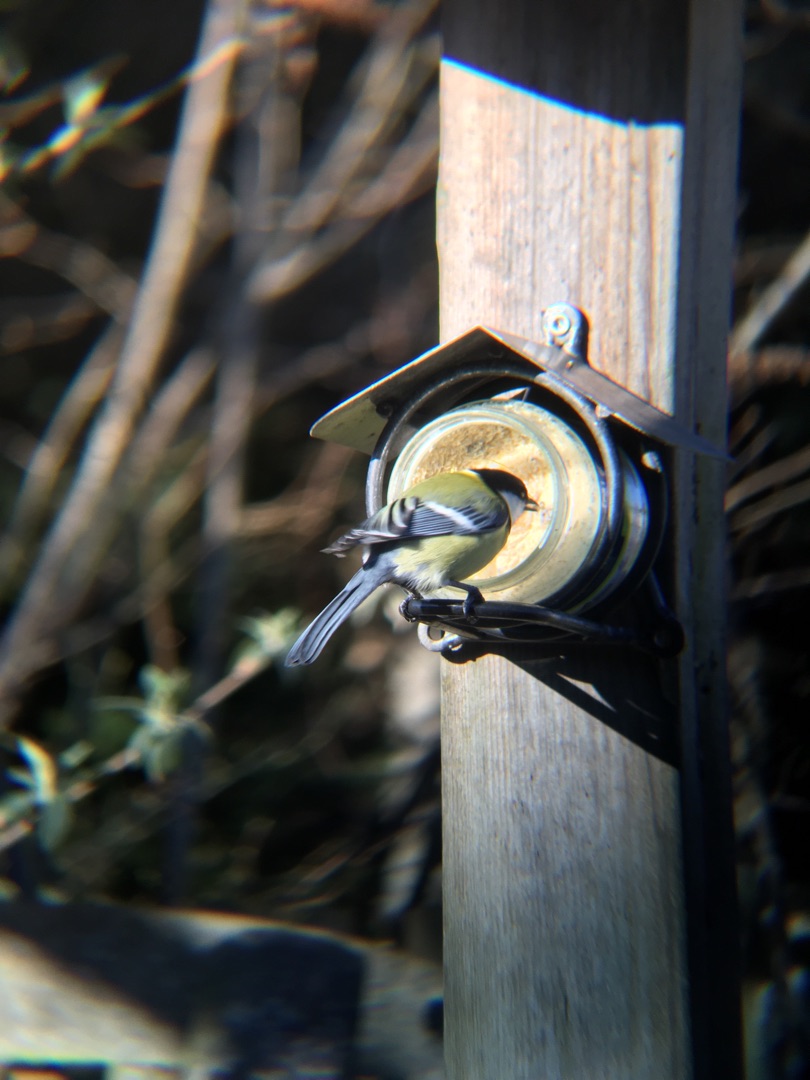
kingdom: Animalia
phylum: Chordata
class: Aves
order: Passeriformes
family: Paridae
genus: Parus
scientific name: Parus major
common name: Musvit
